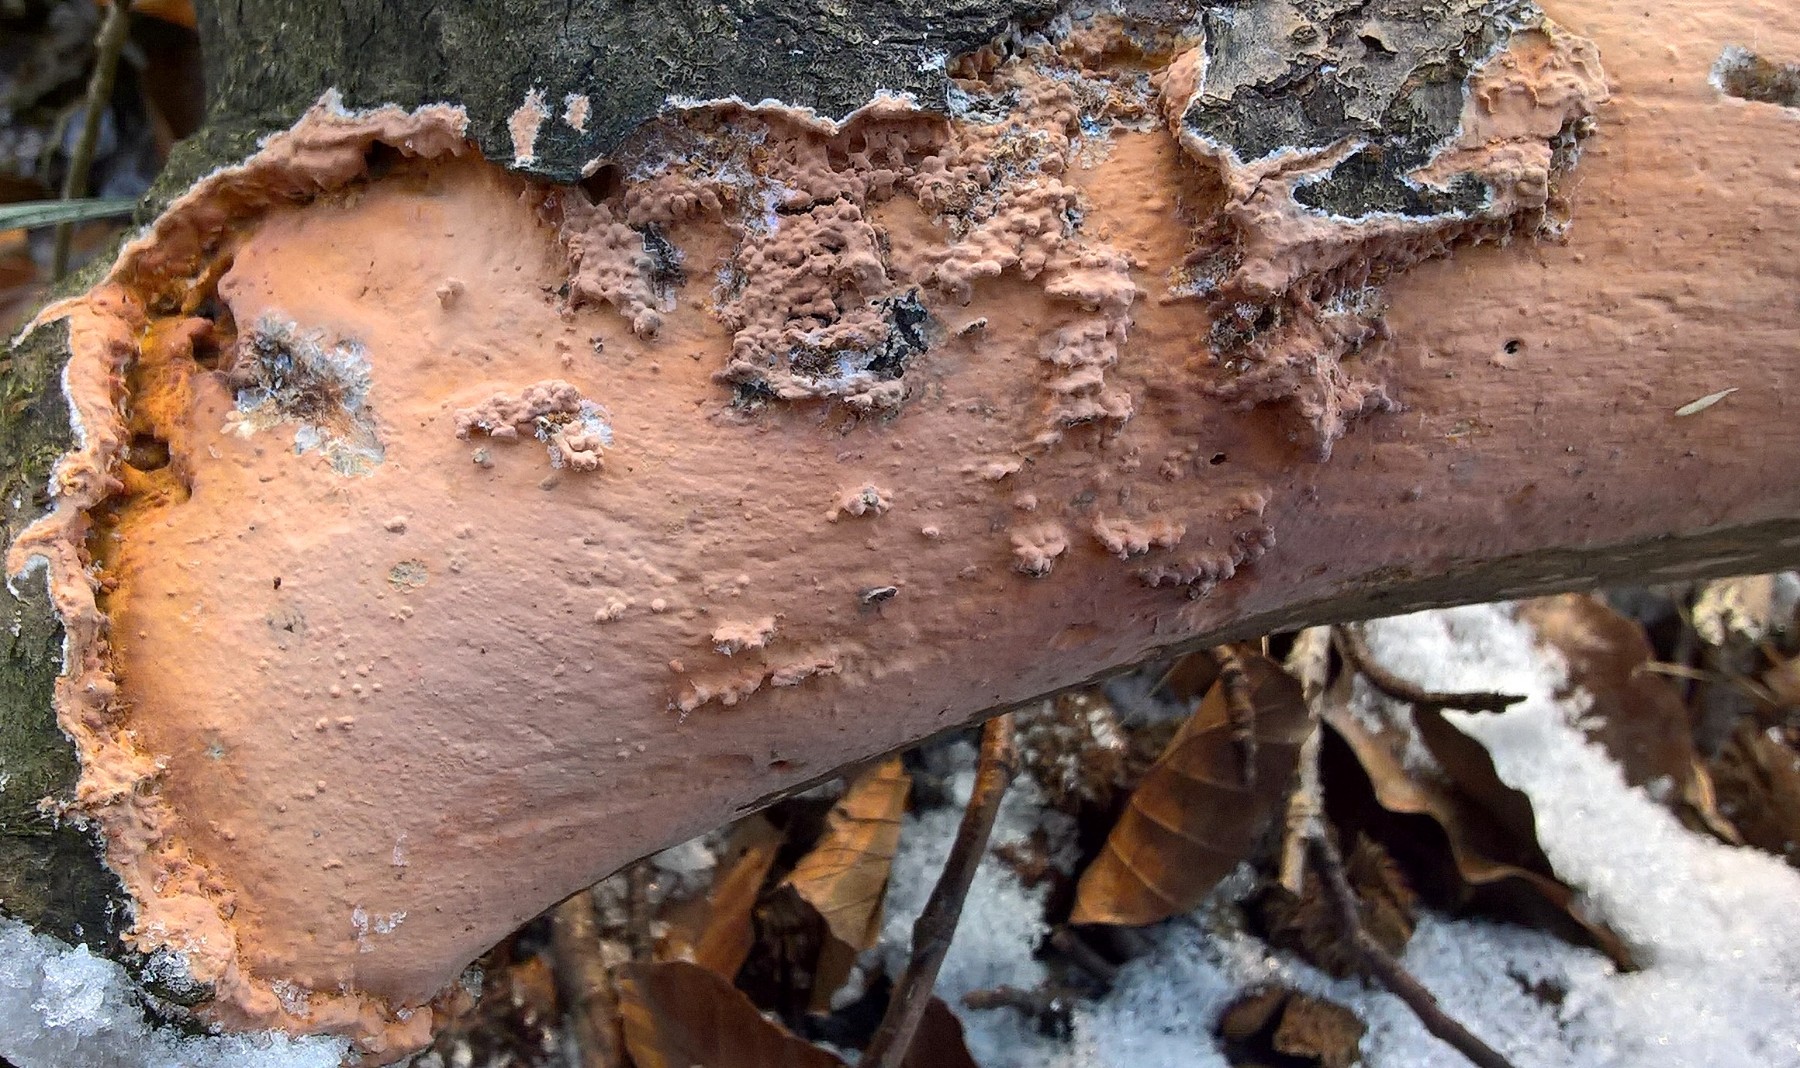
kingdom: Fungi
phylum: Basidiomycota
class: Agaricomycetes
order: Russulales
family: Peniophoraceae
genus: Peniophora
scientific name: Peniophora incarnata
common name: laksefarvet voksskind
